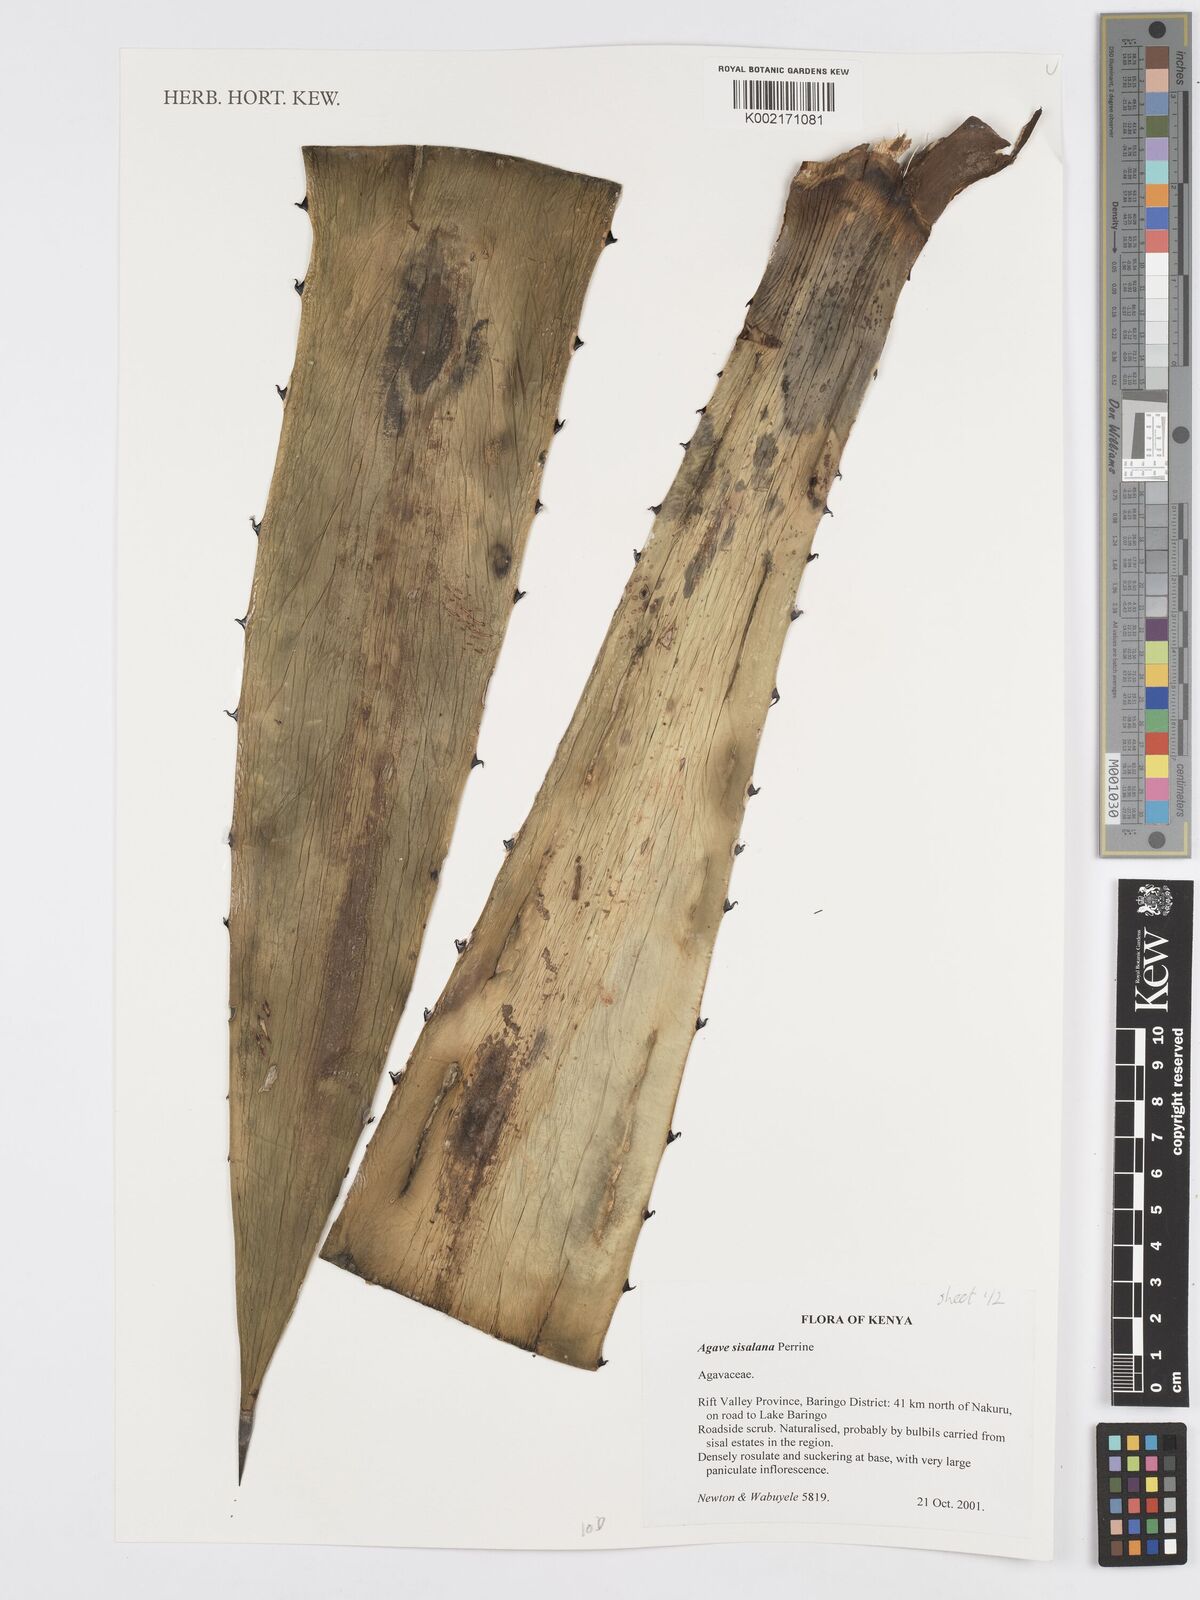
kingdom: Plantae
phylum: Tracheophyta
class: Liliopsida
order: Asparagales
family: Asparagaceae
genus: Agave
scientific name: Agave sisalana
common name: Sisal hemp
